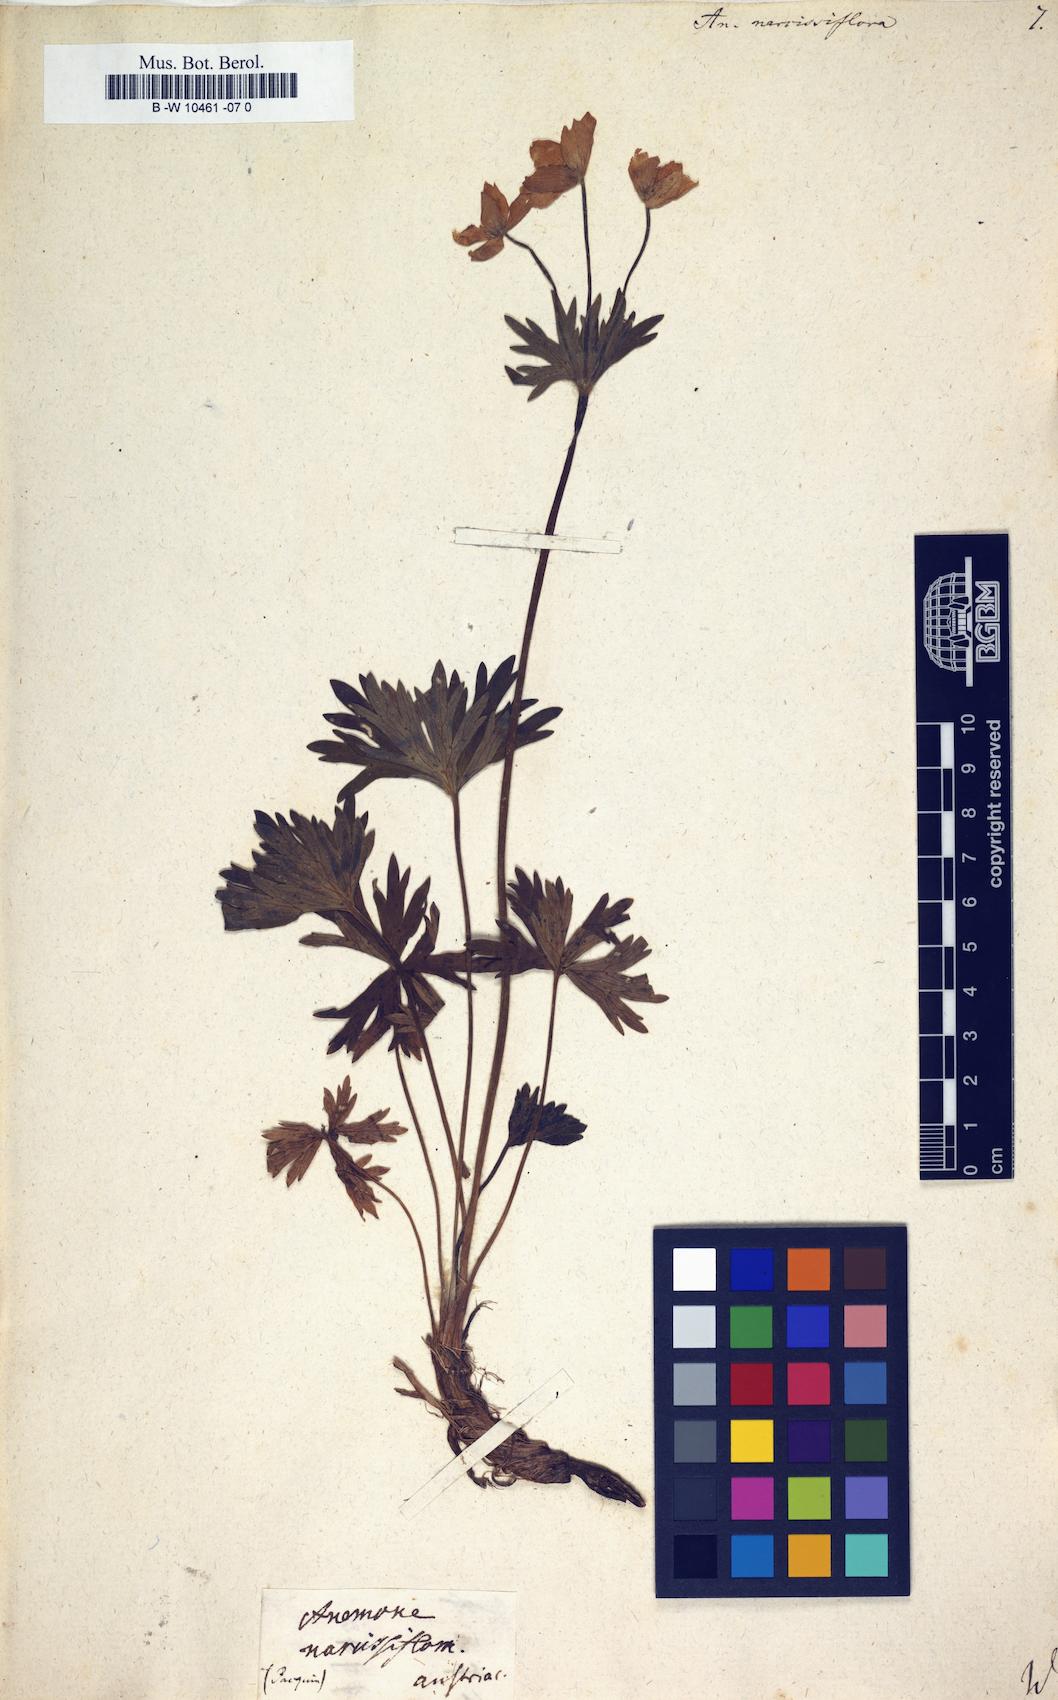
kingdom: Plantae
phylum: Tracheophyta
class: Magnoliopsida
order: Ranunculales
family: Ranunculaceae
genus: Anemonastrum
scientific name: Anemonastrum narcissiflorum
